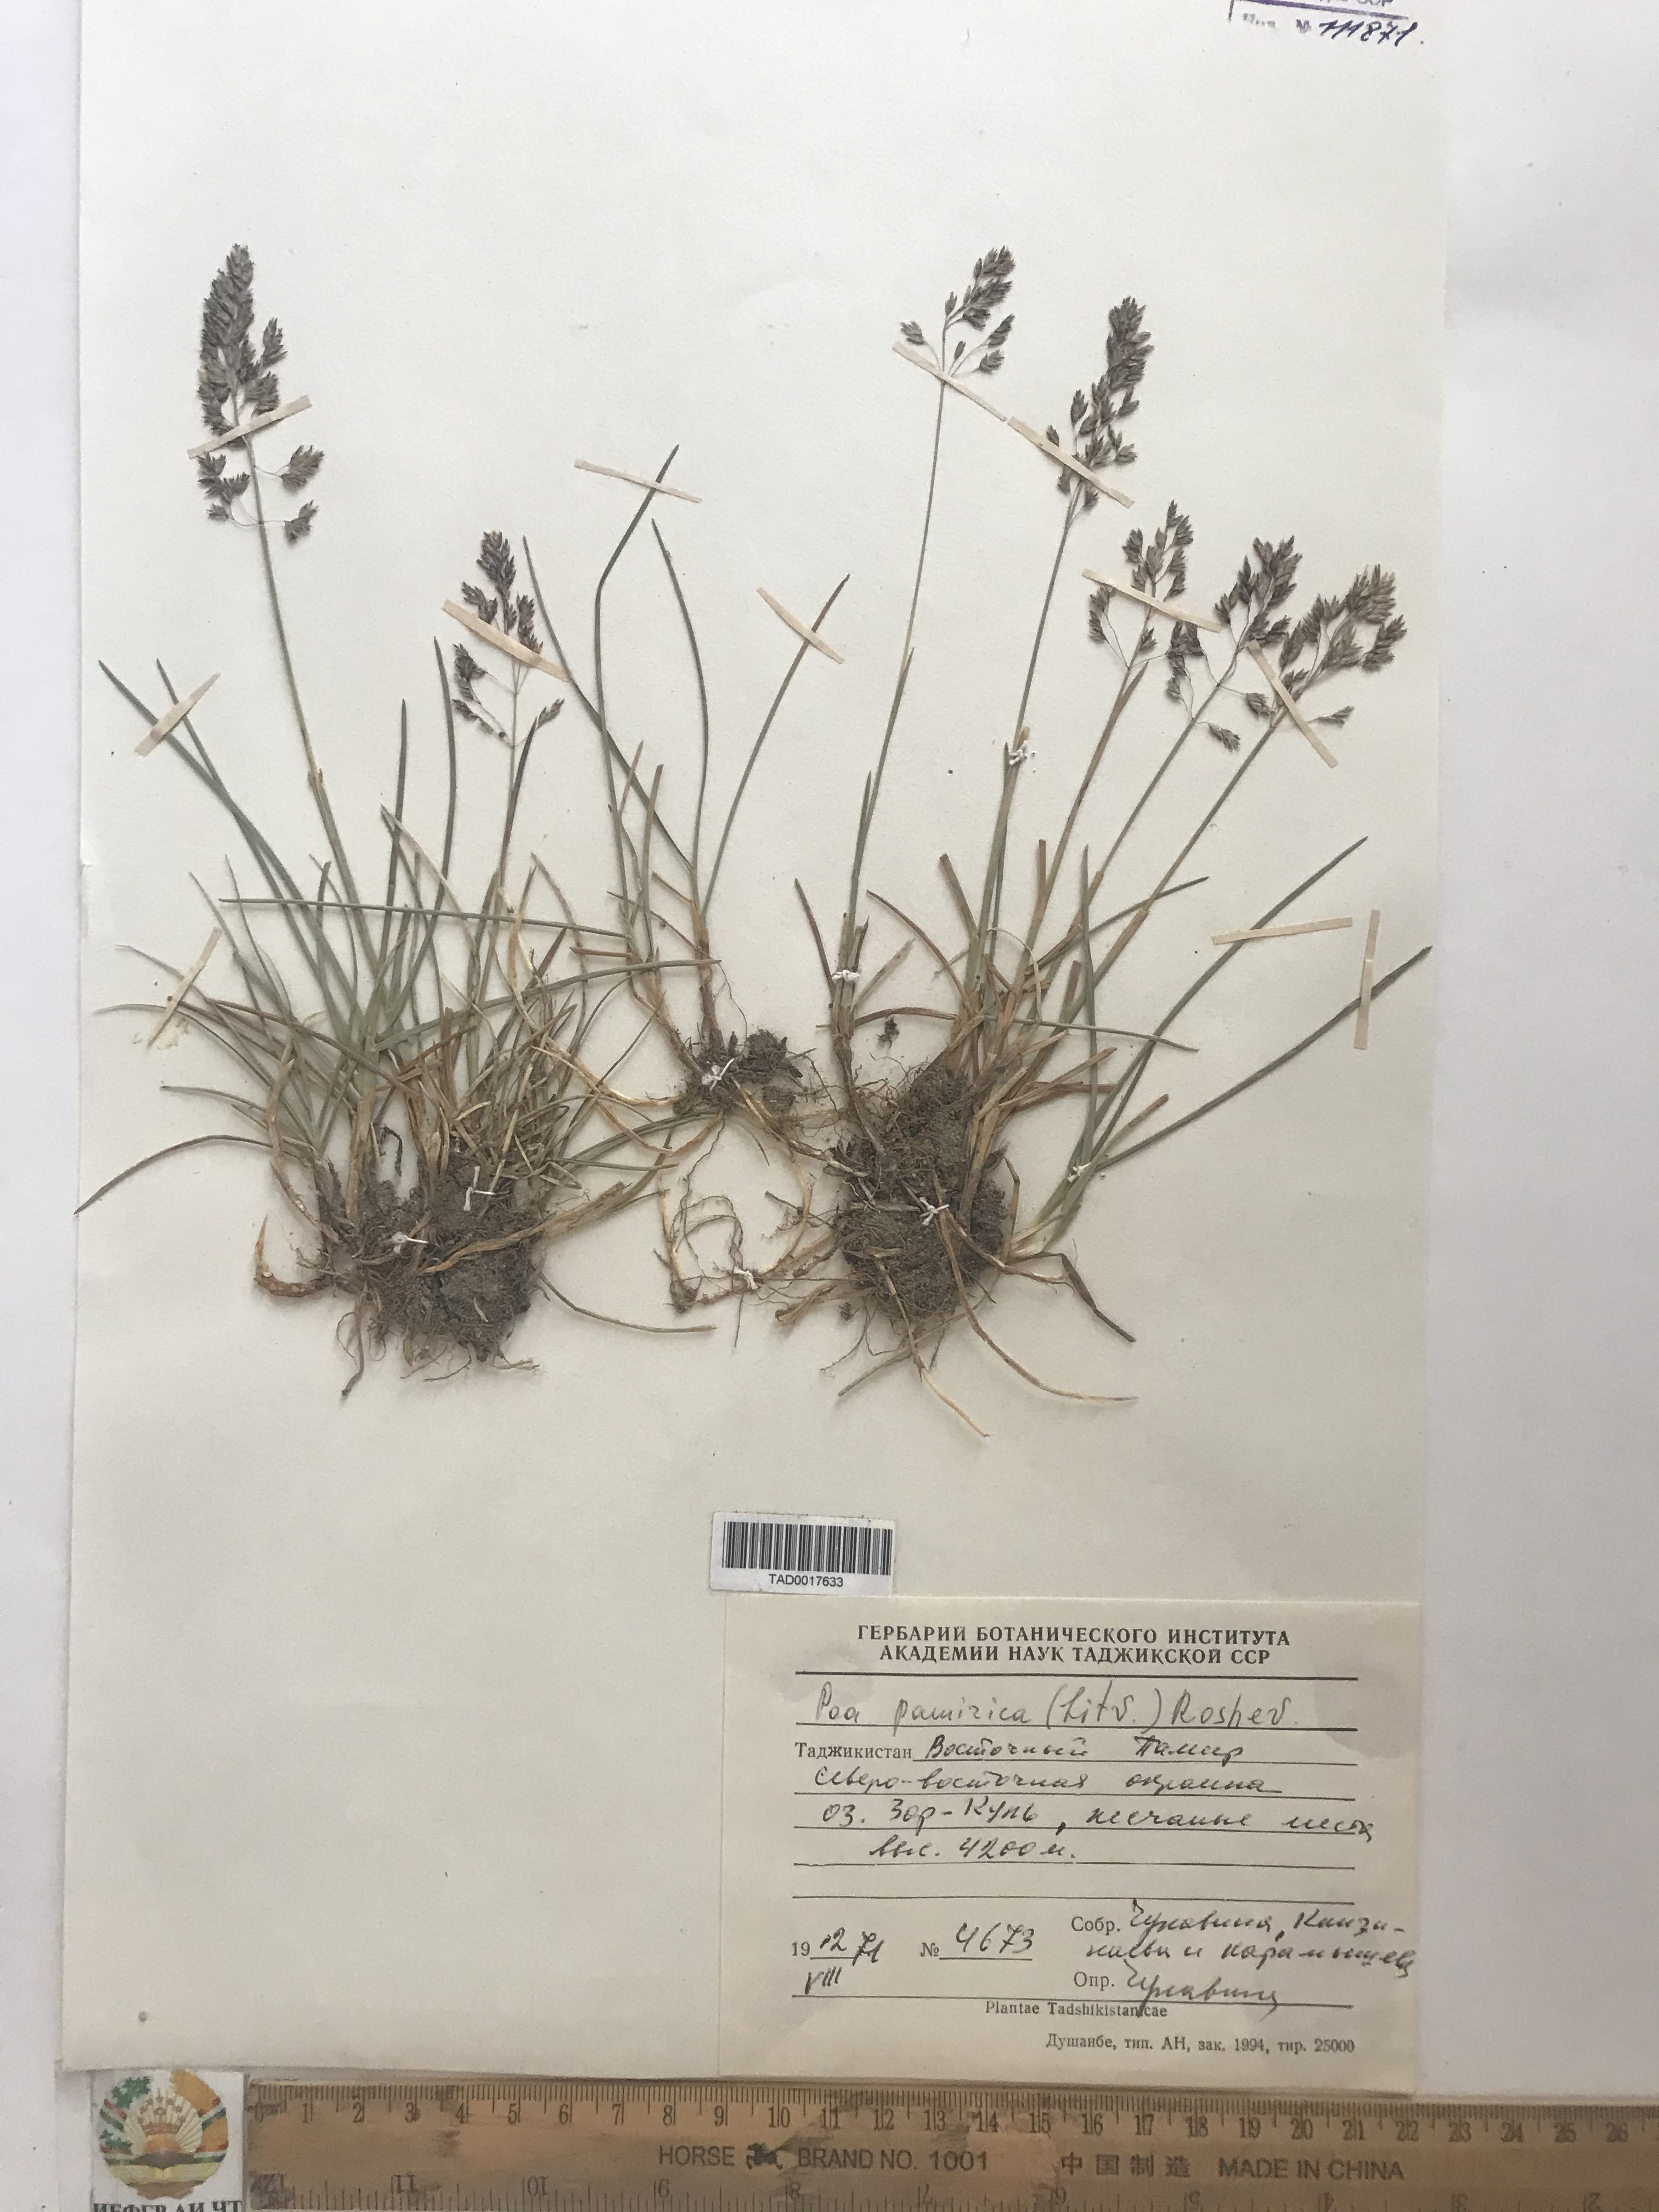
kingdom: Plantae
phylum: Tracheophyta
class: Liliopsida
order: Poales
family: Poaceae
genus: Poa
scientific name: Poa tianschanica
